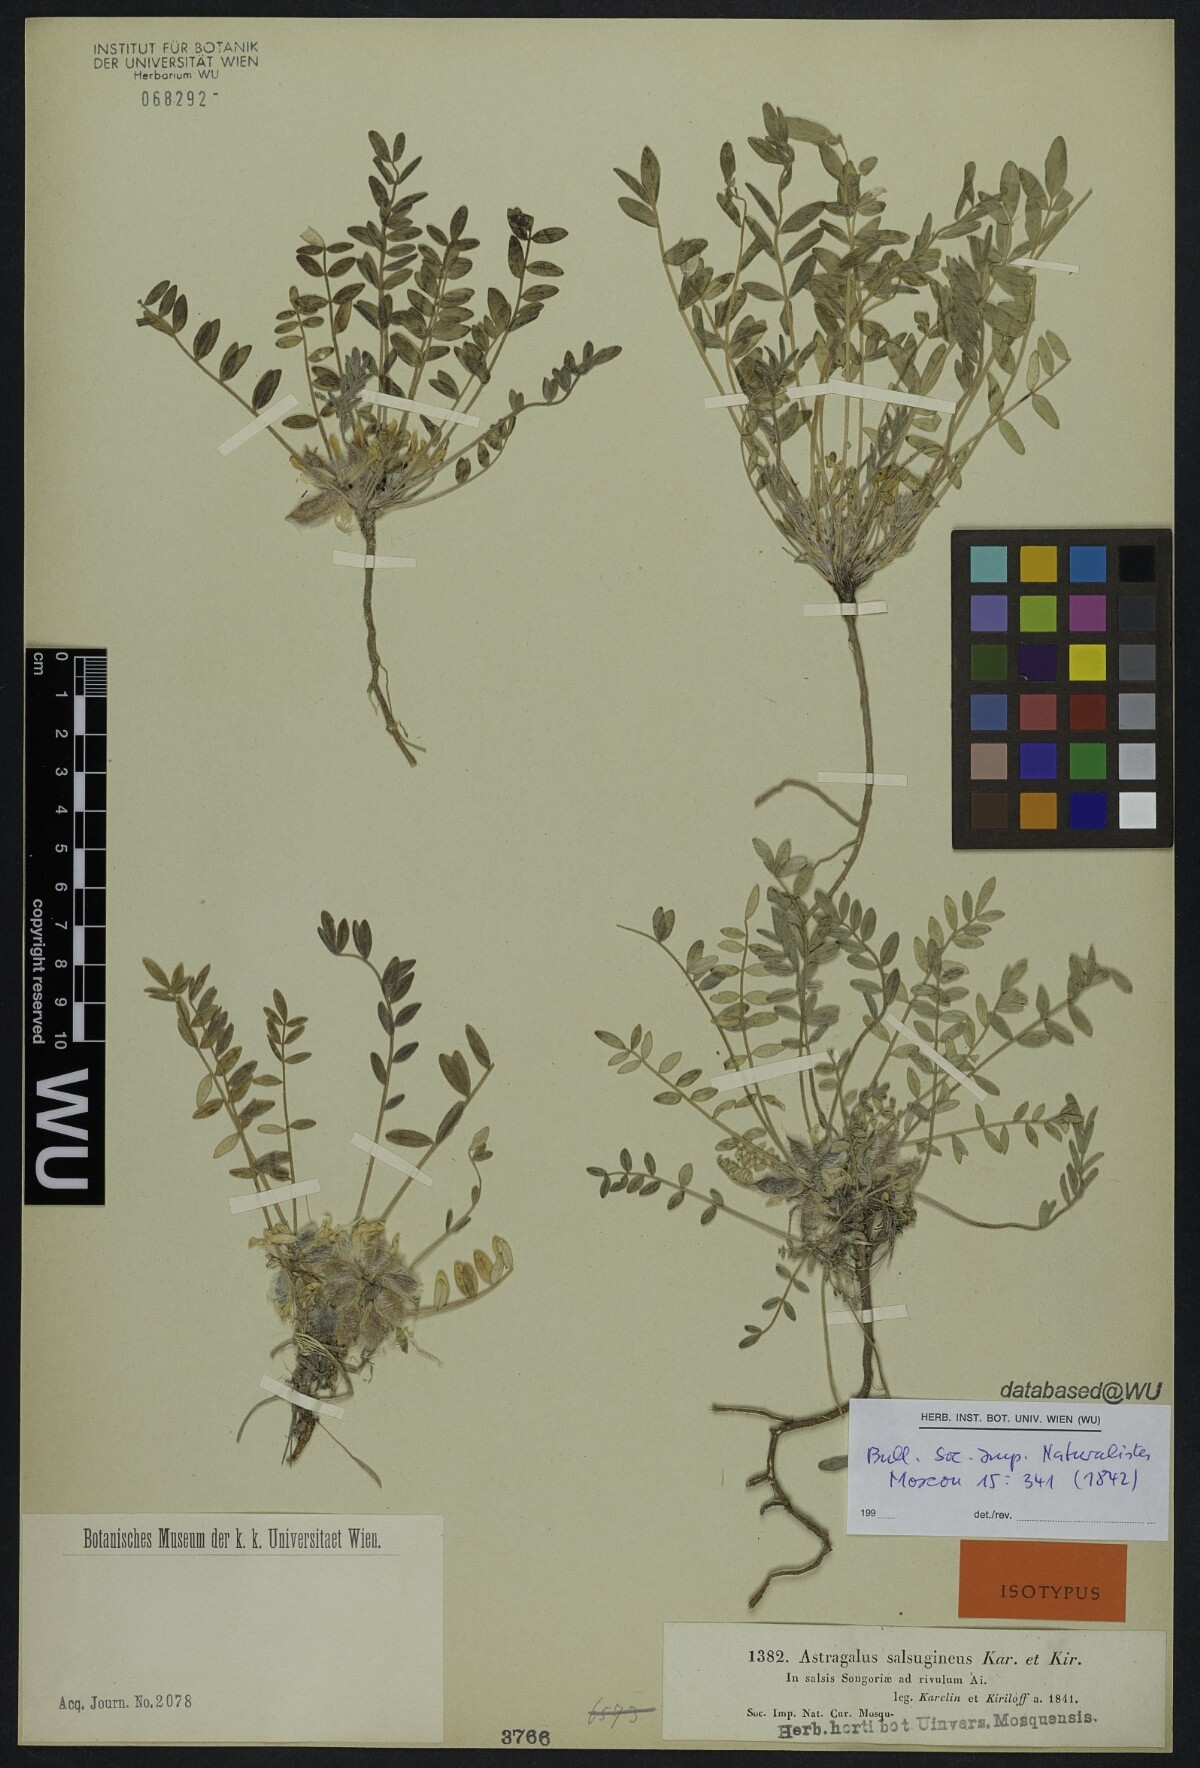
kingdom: Plantae
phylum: Tracheophyta
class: Magnoliopsida
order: Fabales
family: Fabaceae
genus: Astragalus
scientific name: Astragalus salsugineus
